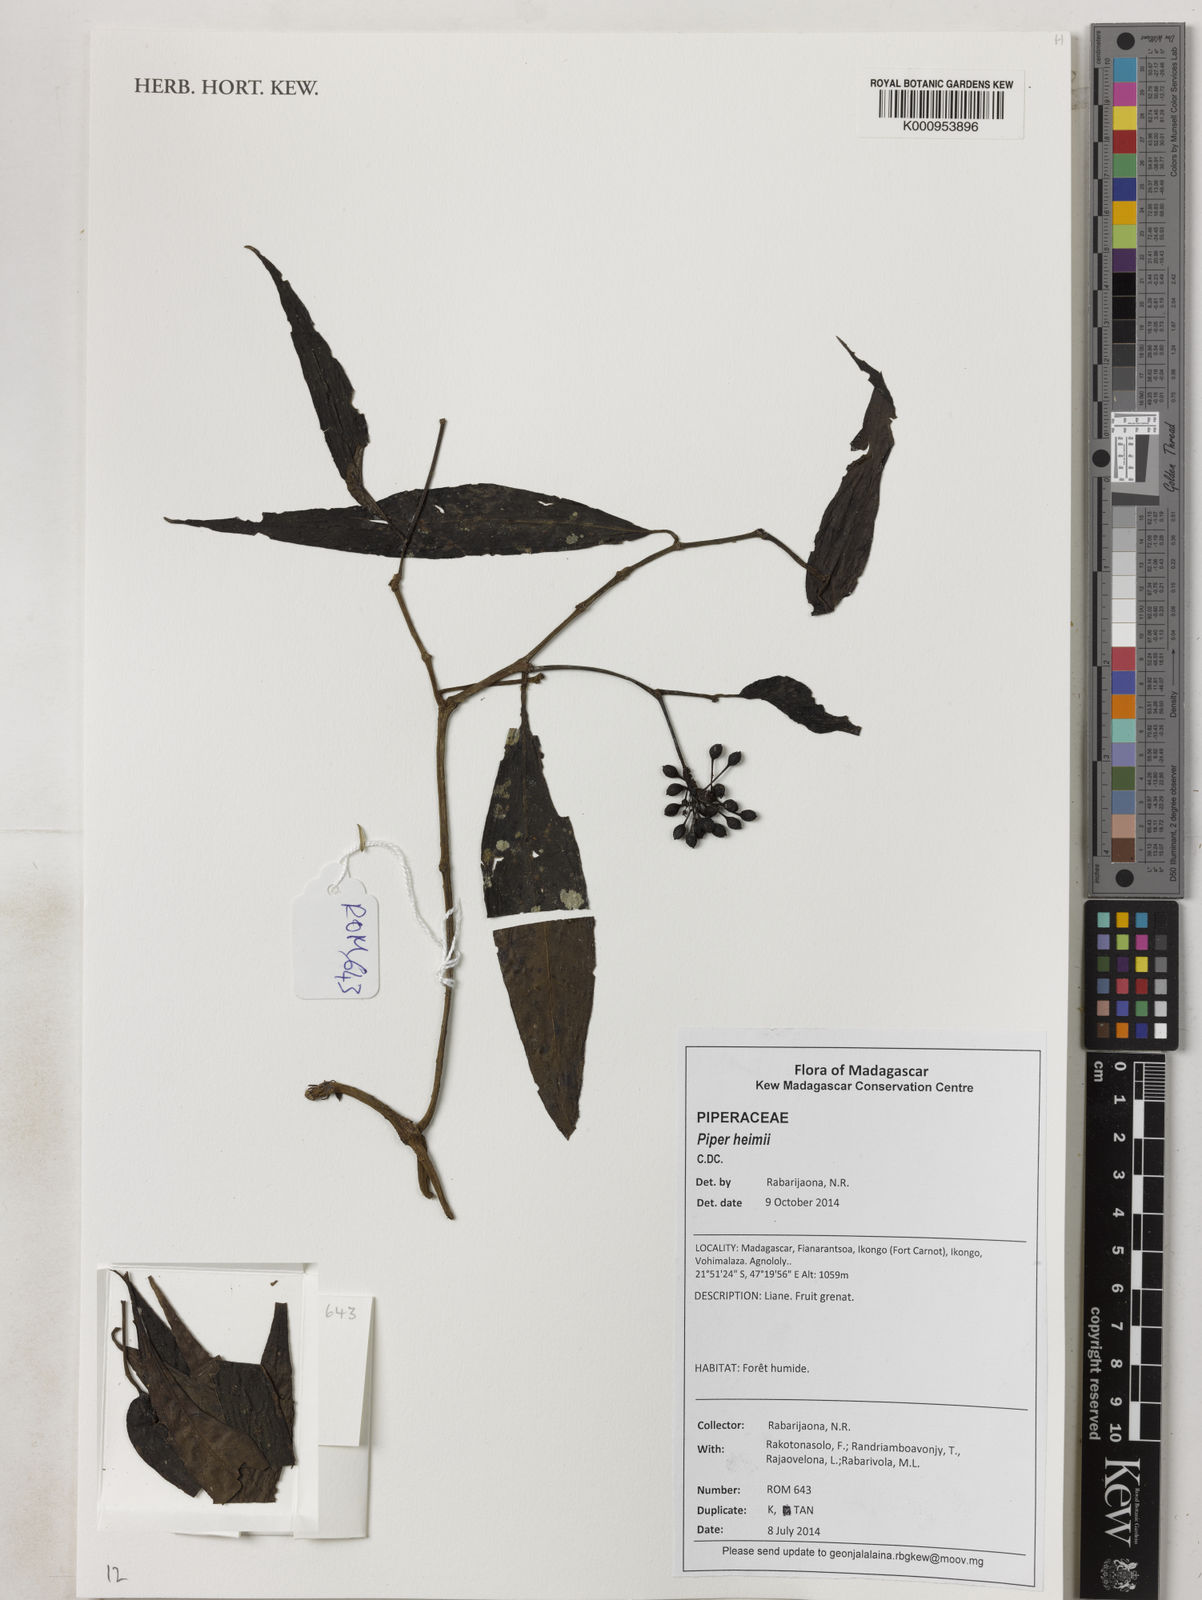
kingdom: Plantae
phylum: Tracheophyta
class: Magnoliopsida
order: Piperales
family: Piperaceae
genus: Piper
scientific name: Piper heimii
